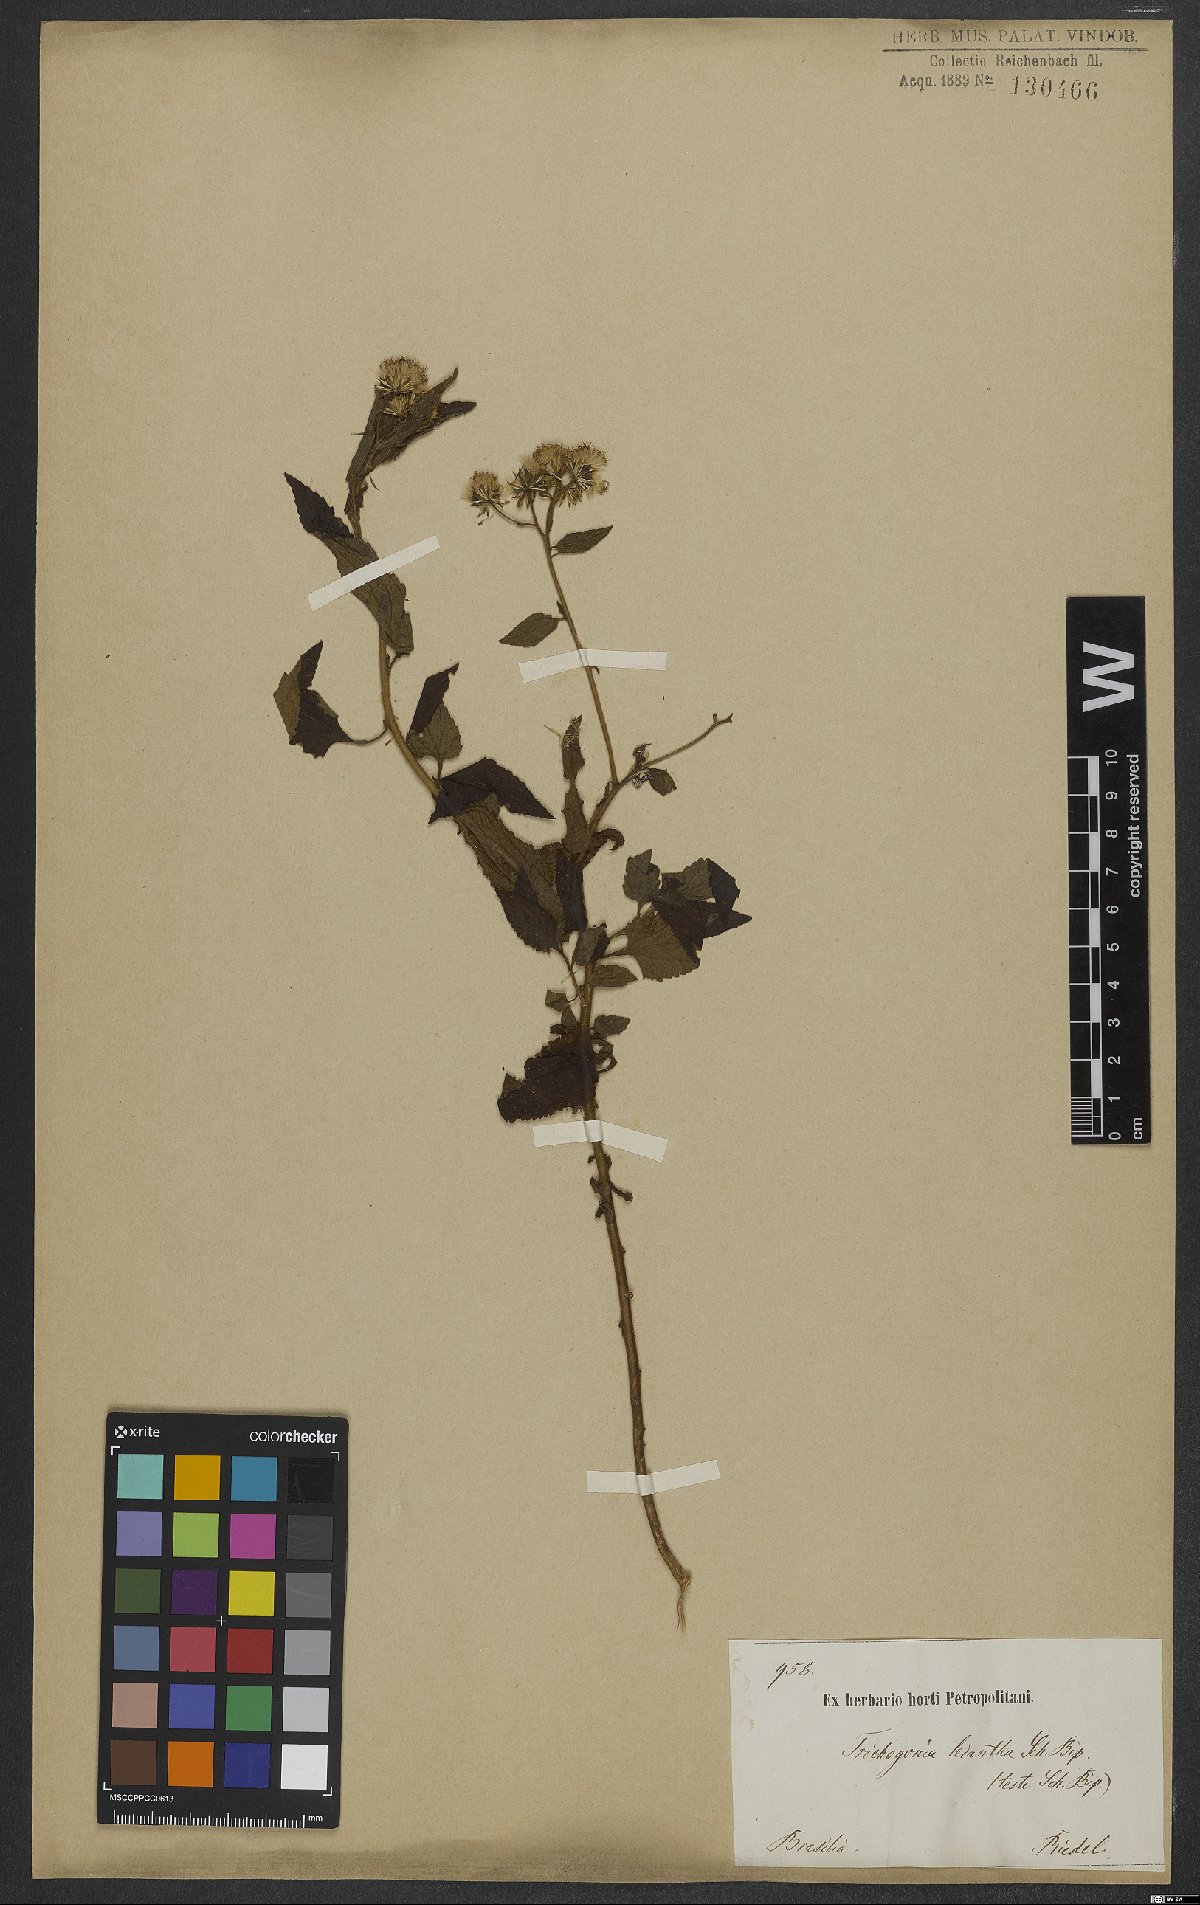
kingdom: Plantae
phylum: Tracheophyta
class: Magnoliopsida
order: Asterales
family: Asteraceae
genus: Trichogoniopsis
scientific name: Trichogoniopsis adenantha
